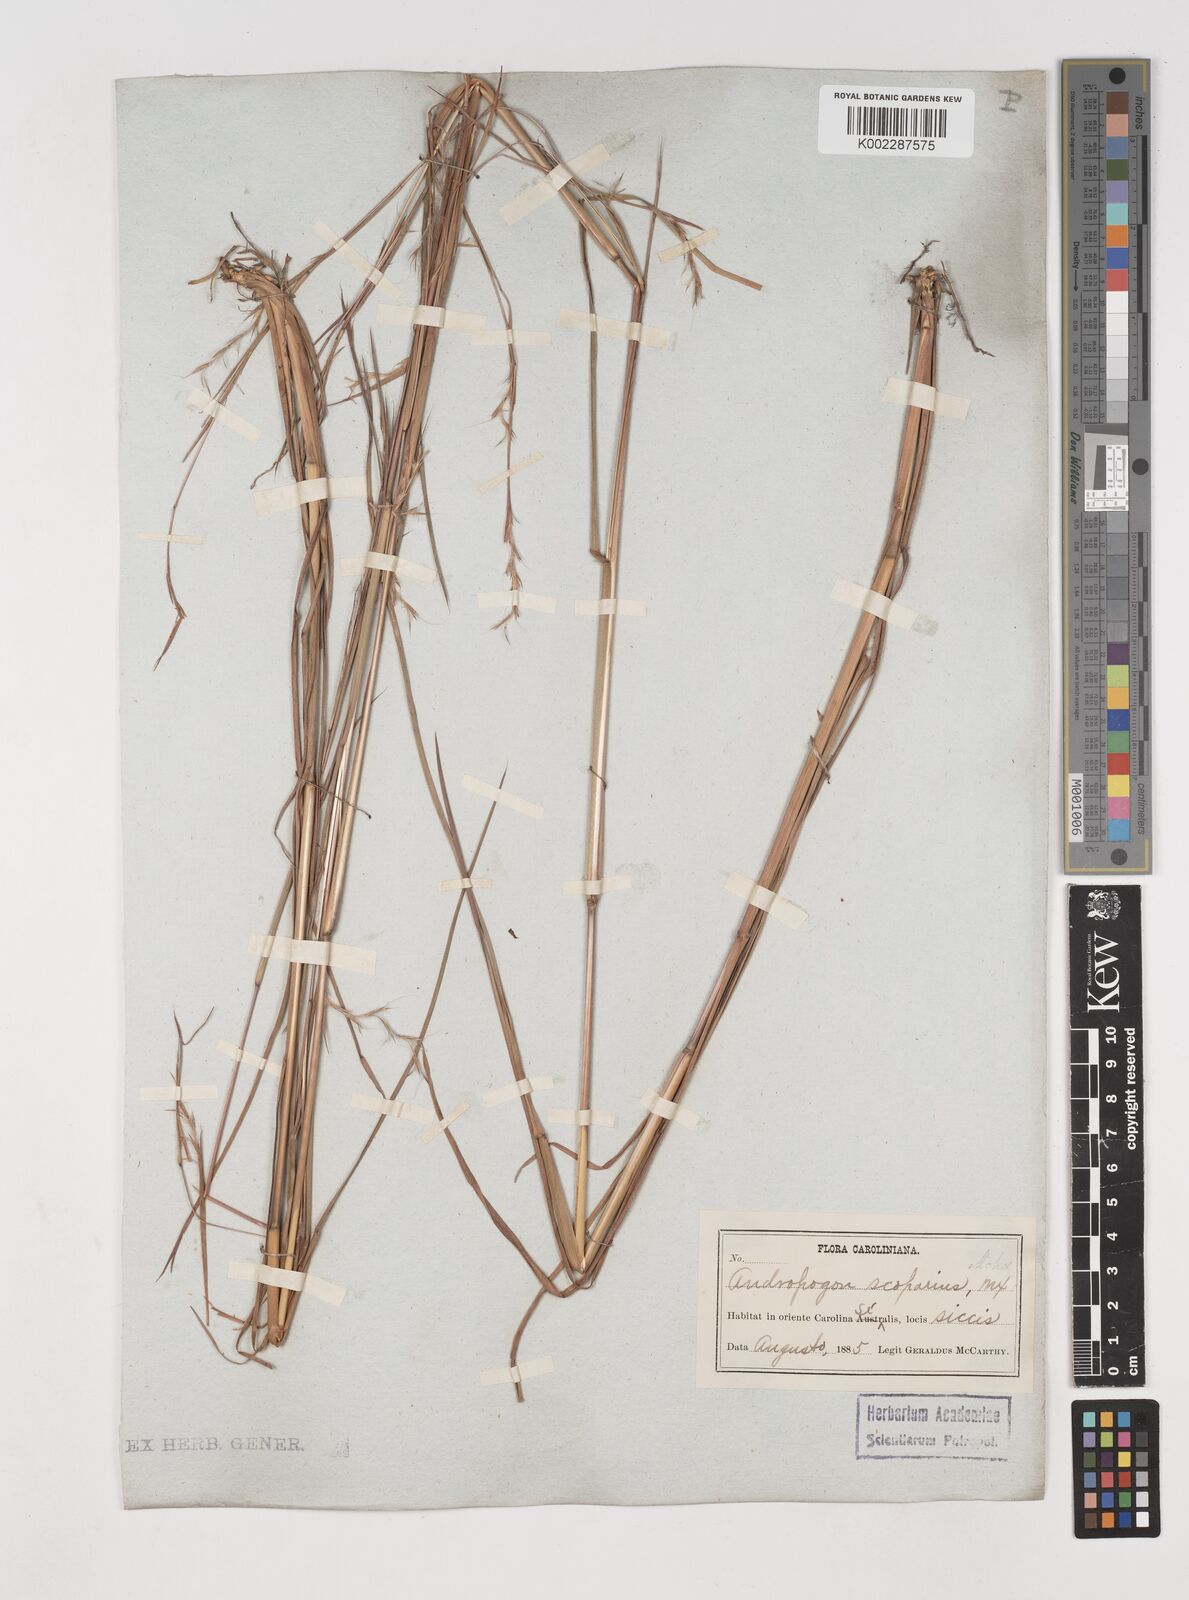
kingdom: Plantae
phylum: Tracheophyta
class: Liliopsida
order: Poales
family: Poaceae
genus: Schizachyrium
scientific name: Schizachyrium scoparium
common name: Little bluestem
